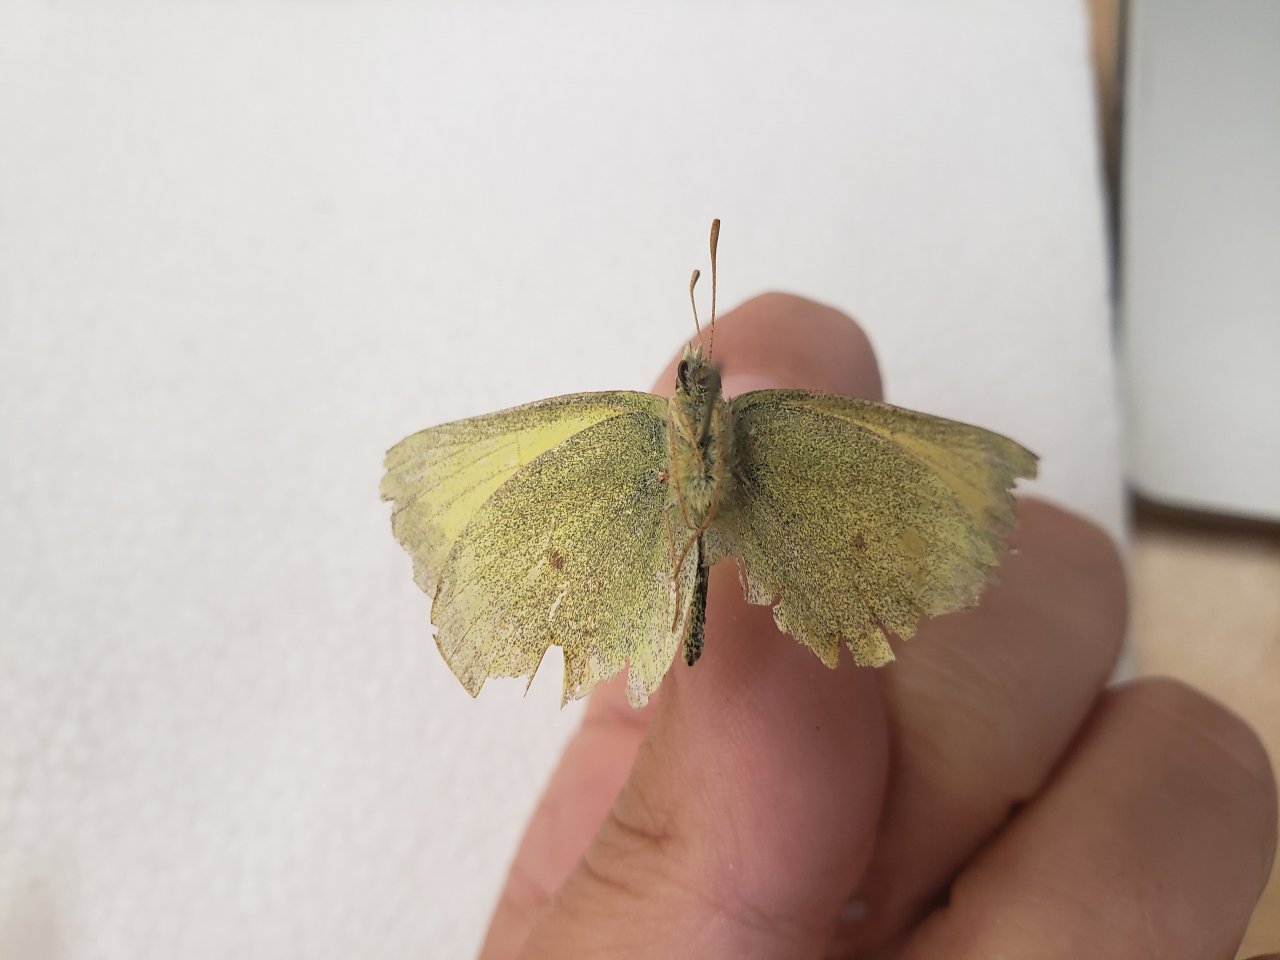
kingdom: Animalia
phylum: Arthropoda
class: Insecta
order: Lepidoptera
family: Pieridae
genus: Colias
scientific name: Colias pelidne
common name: Pelidne Sulphur
